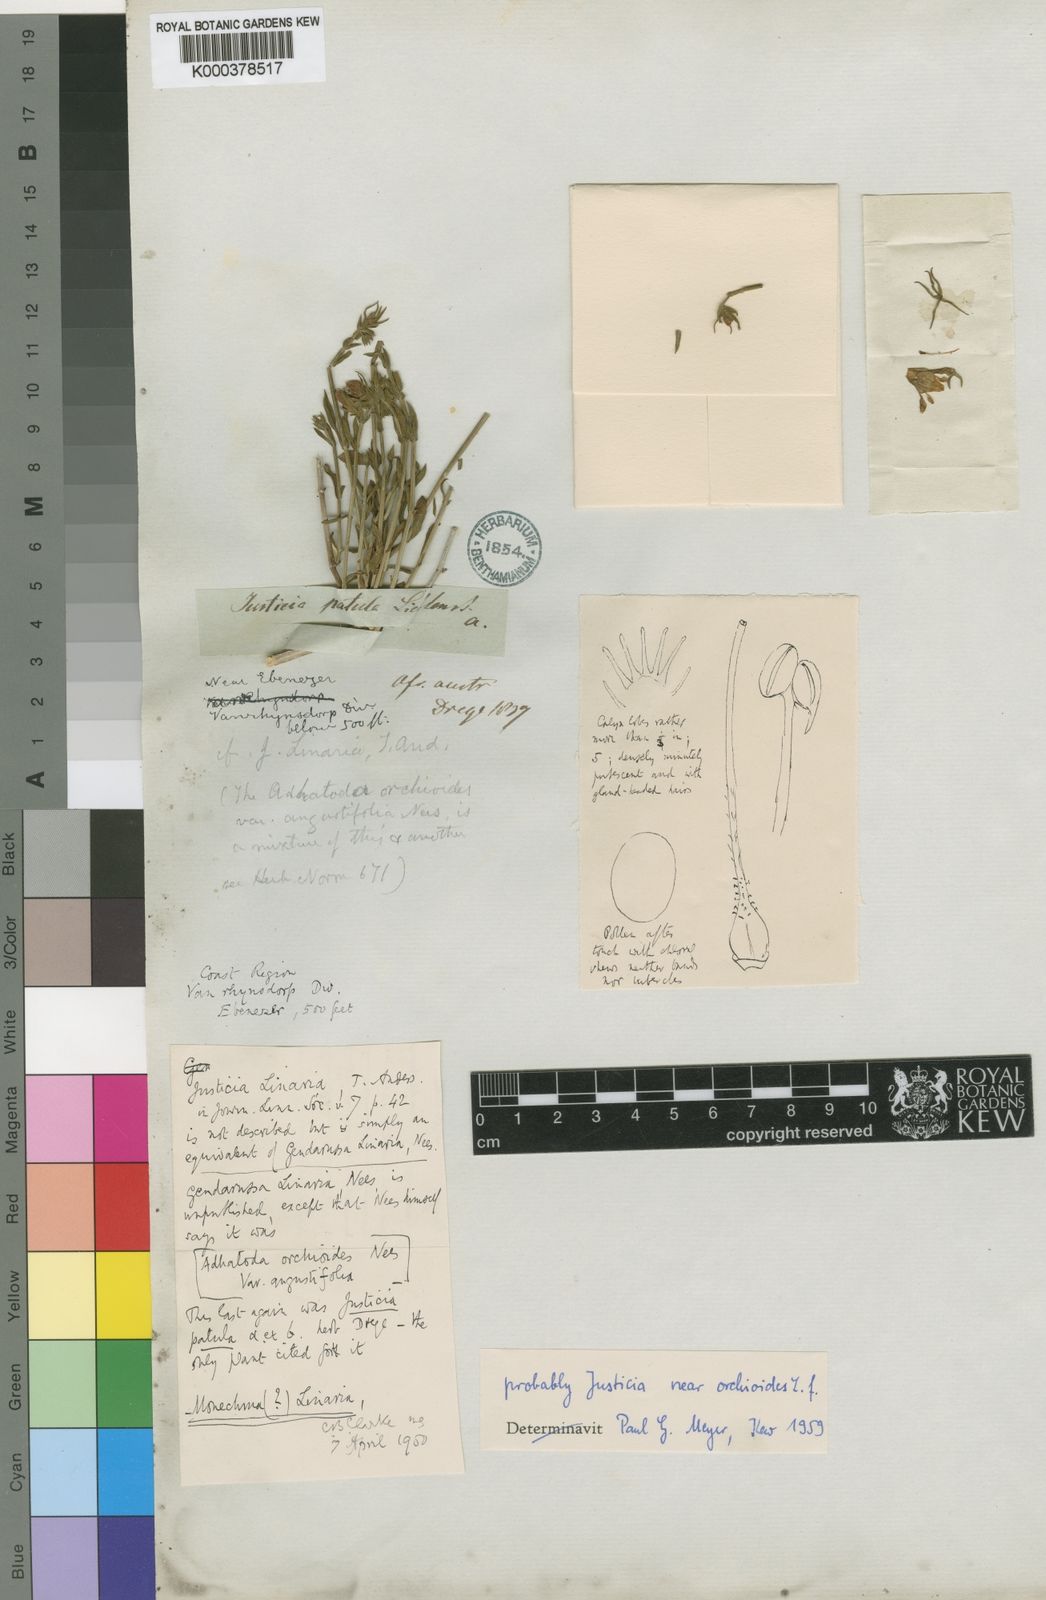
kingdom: Plantae
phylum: Tracheophyta
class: Magnoliopsida
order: Lamiales
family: Acanthaceae
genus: Justicia
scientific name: Justicia orchioides
